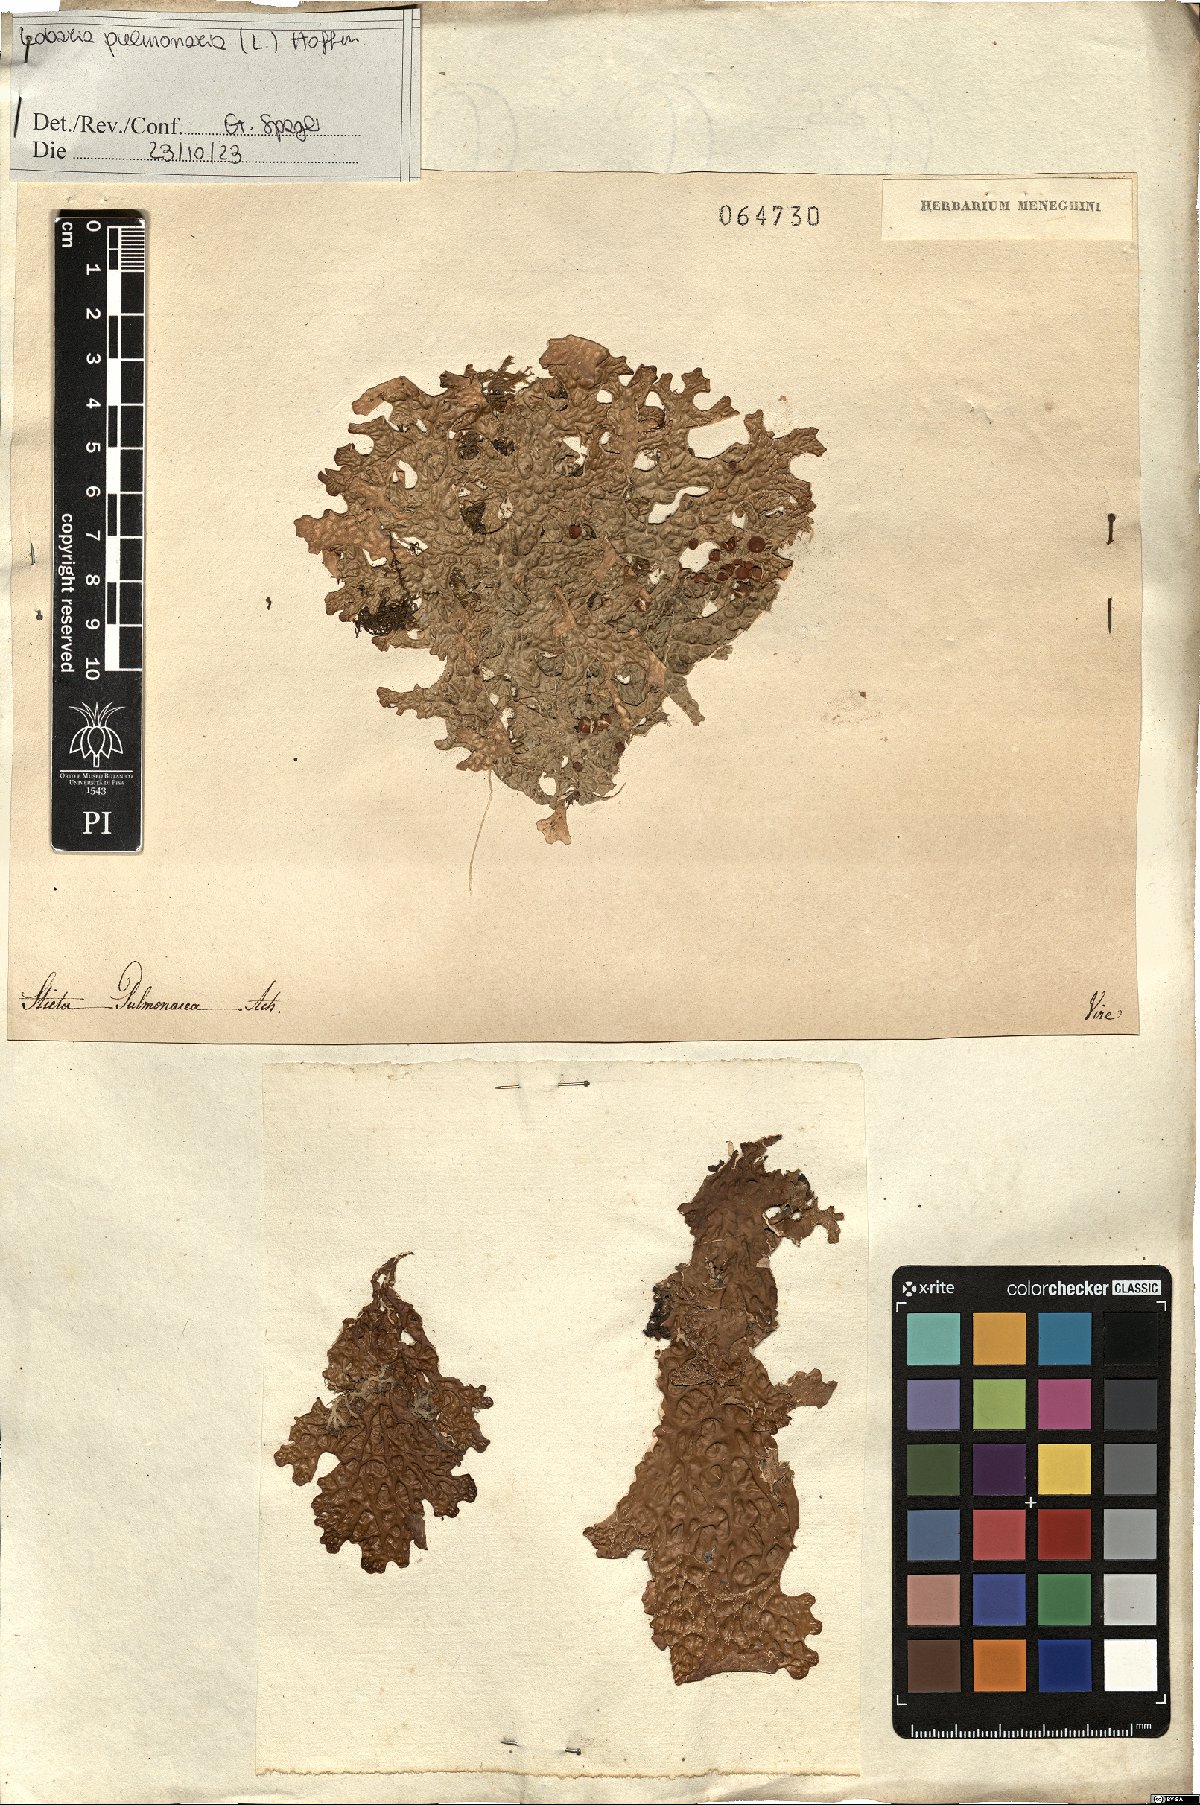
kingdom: Fungi
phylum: Ascomycota
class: Lecanoromycetes
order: Peltigerales
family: Lobariaceae
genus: Lobaria
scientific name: Lobaria pulmonaria
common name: Lungwort
